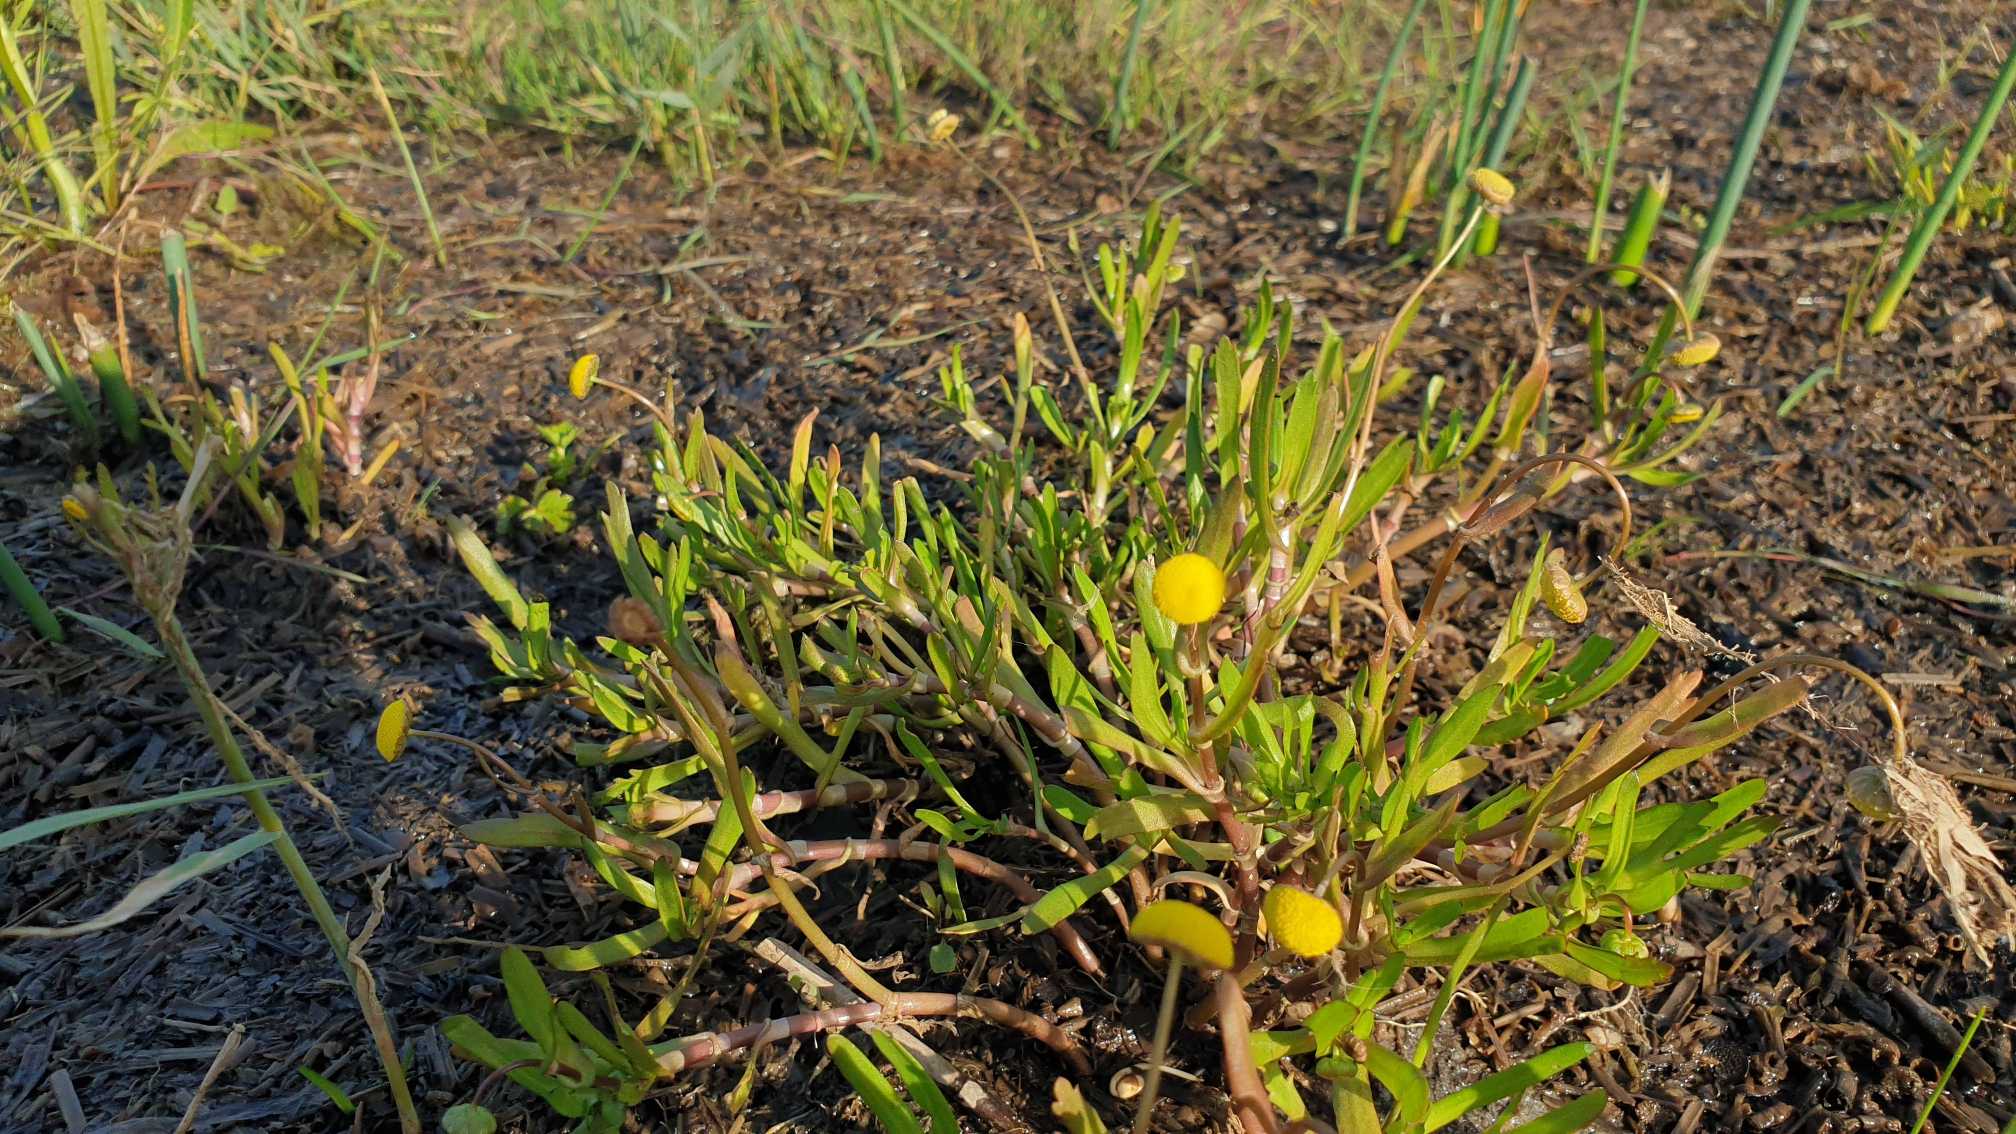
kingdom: Plantae
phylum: Tracheophyta
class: Magnoliopsida
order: Asterales
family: Asteraceae
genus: Cotula
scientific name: Cotula coronopifolia
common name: Firkløft
